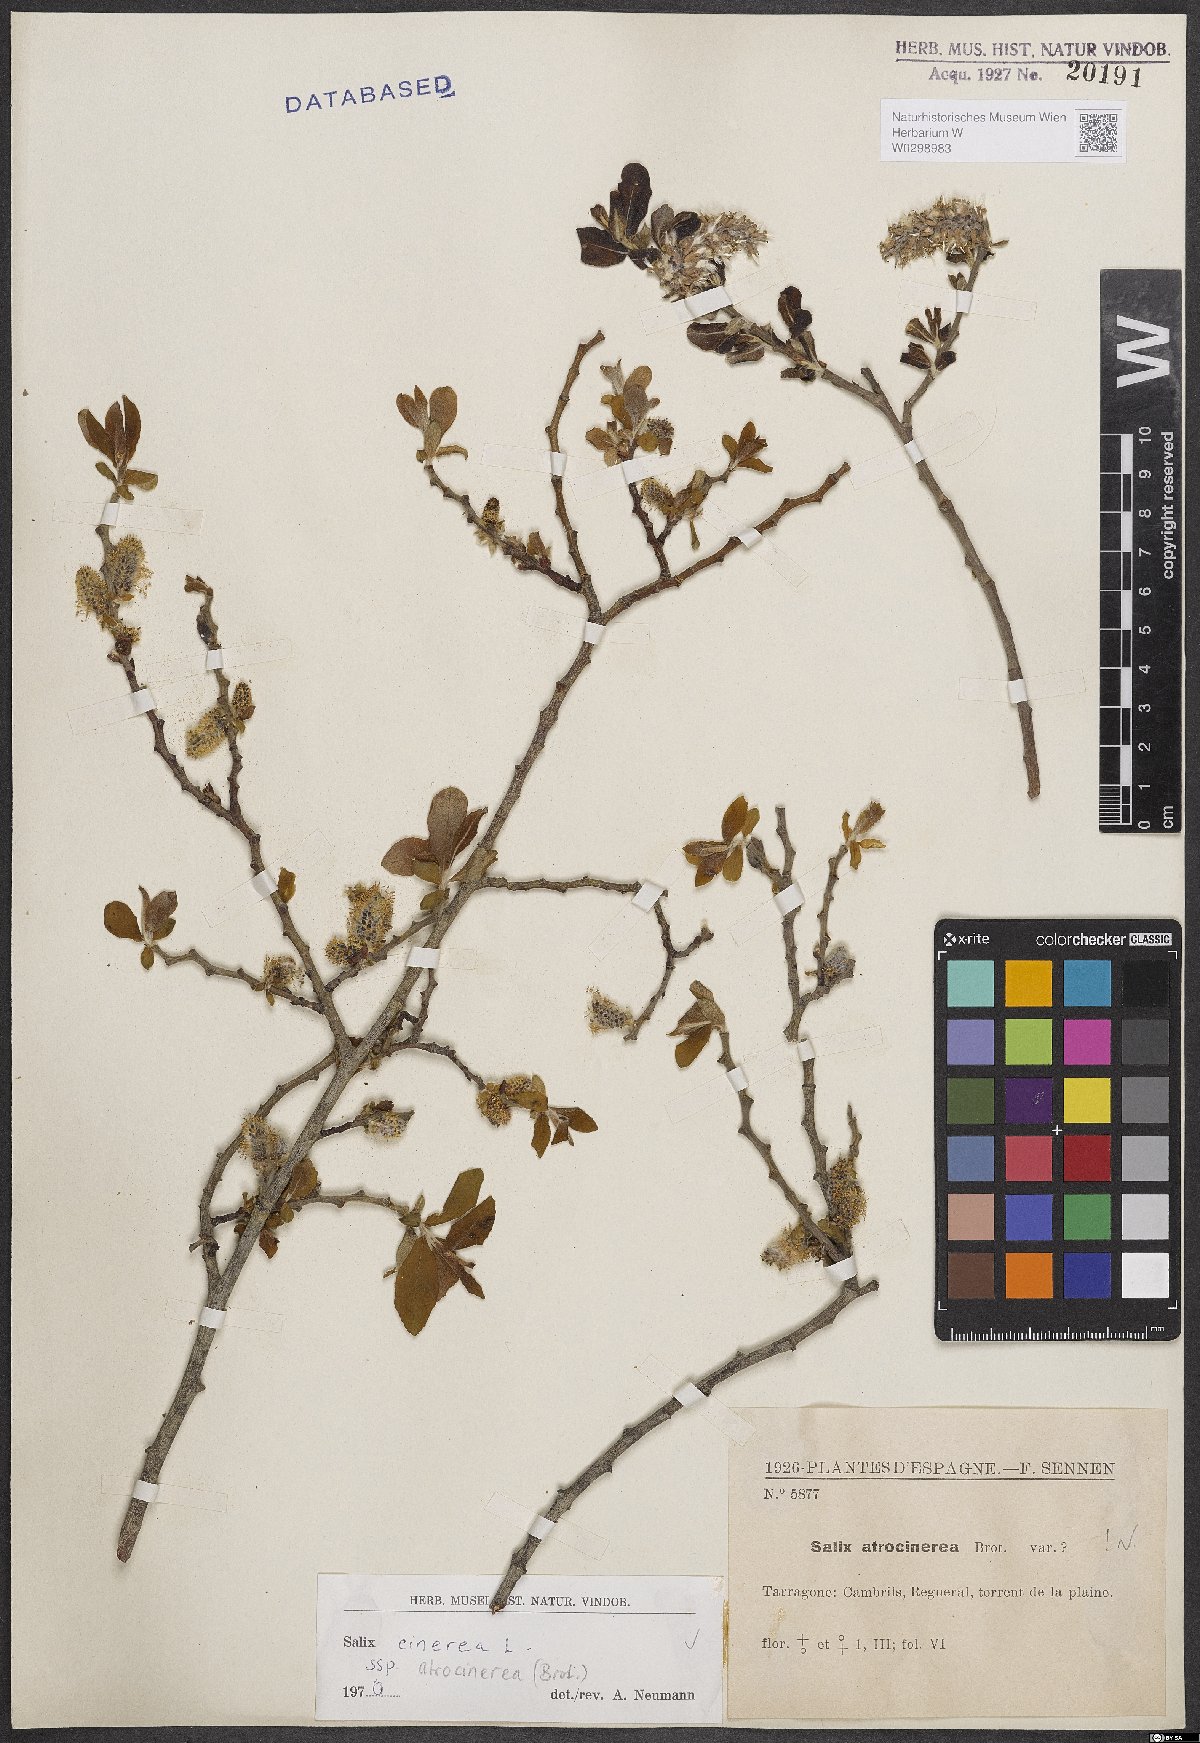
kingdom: Plantae
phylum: Tracheophyta
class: Magnoliopsida
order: Malpighiales
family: Salicaceae
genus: Salix
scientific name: Salix atrocinerea
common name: Rusty willow
